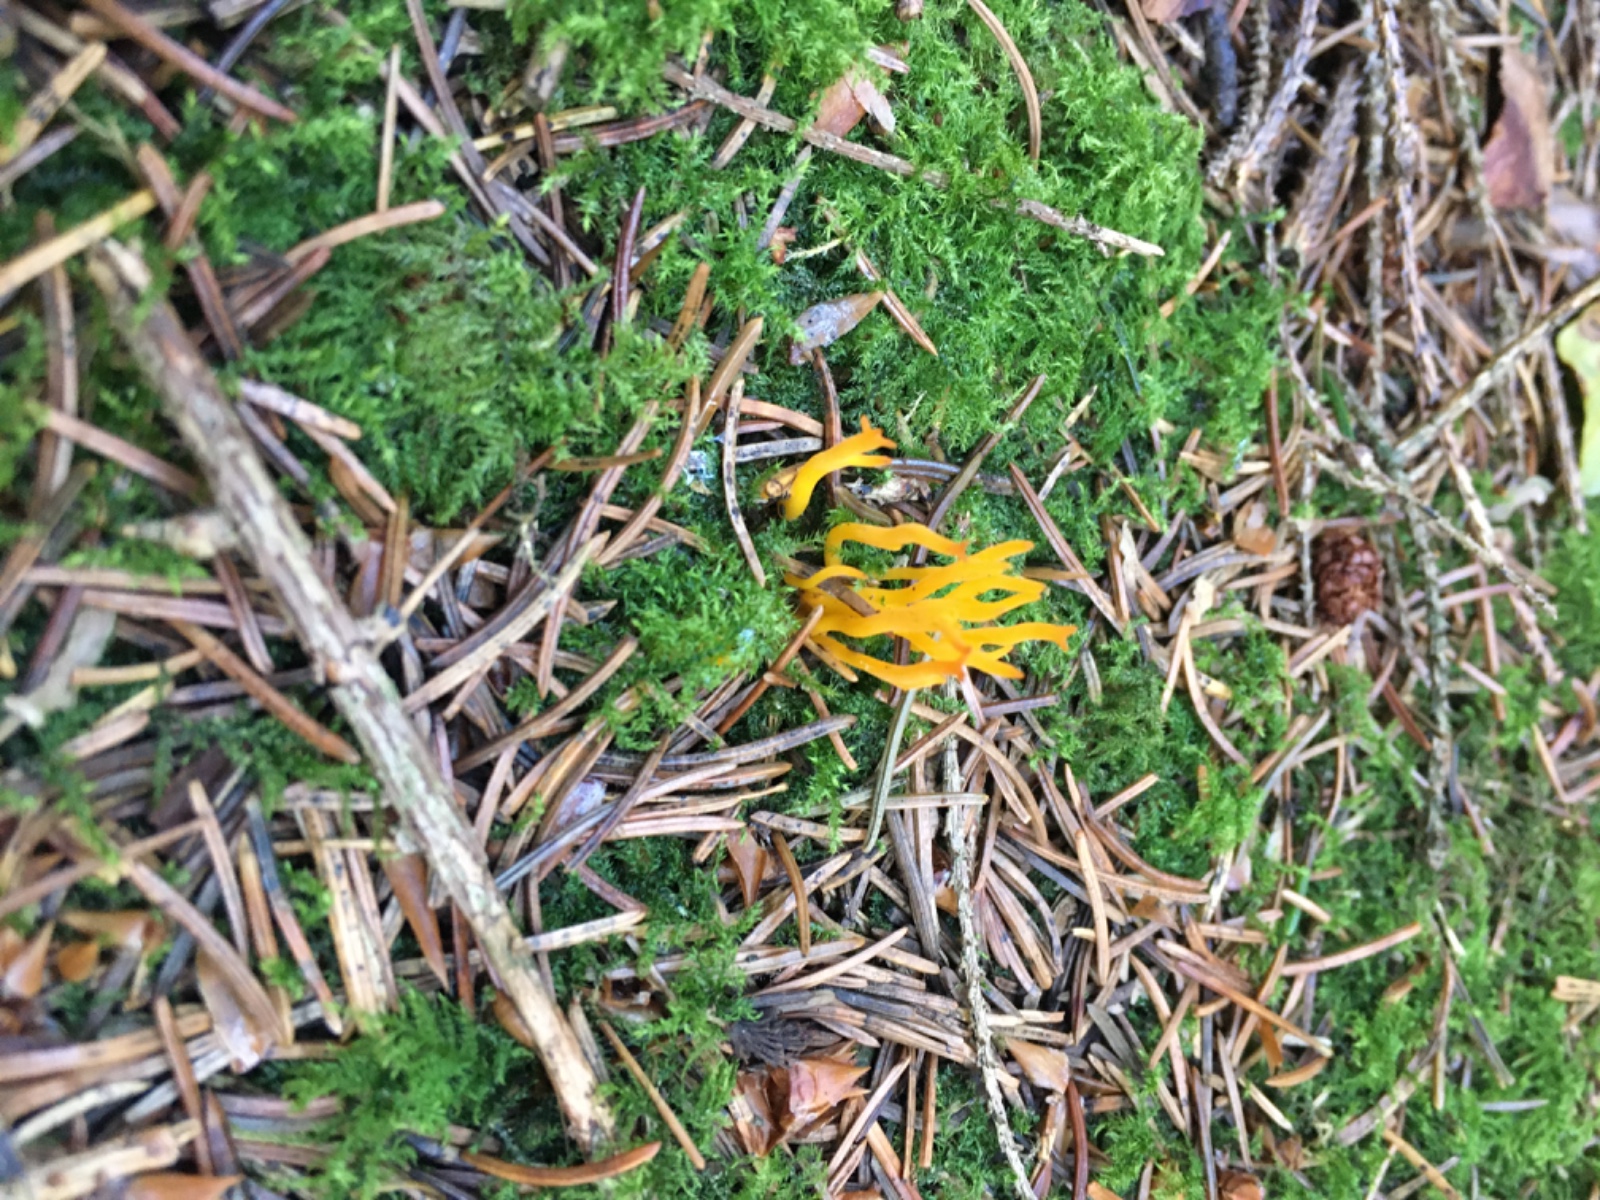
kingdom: Fungi
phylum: Basidiomycota
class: Dacrymycetes
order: Dacrymycetales
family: Dacrymycetaceae
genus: Calocera
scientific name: Calocera viscosa
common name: almindelig guldgaffel
